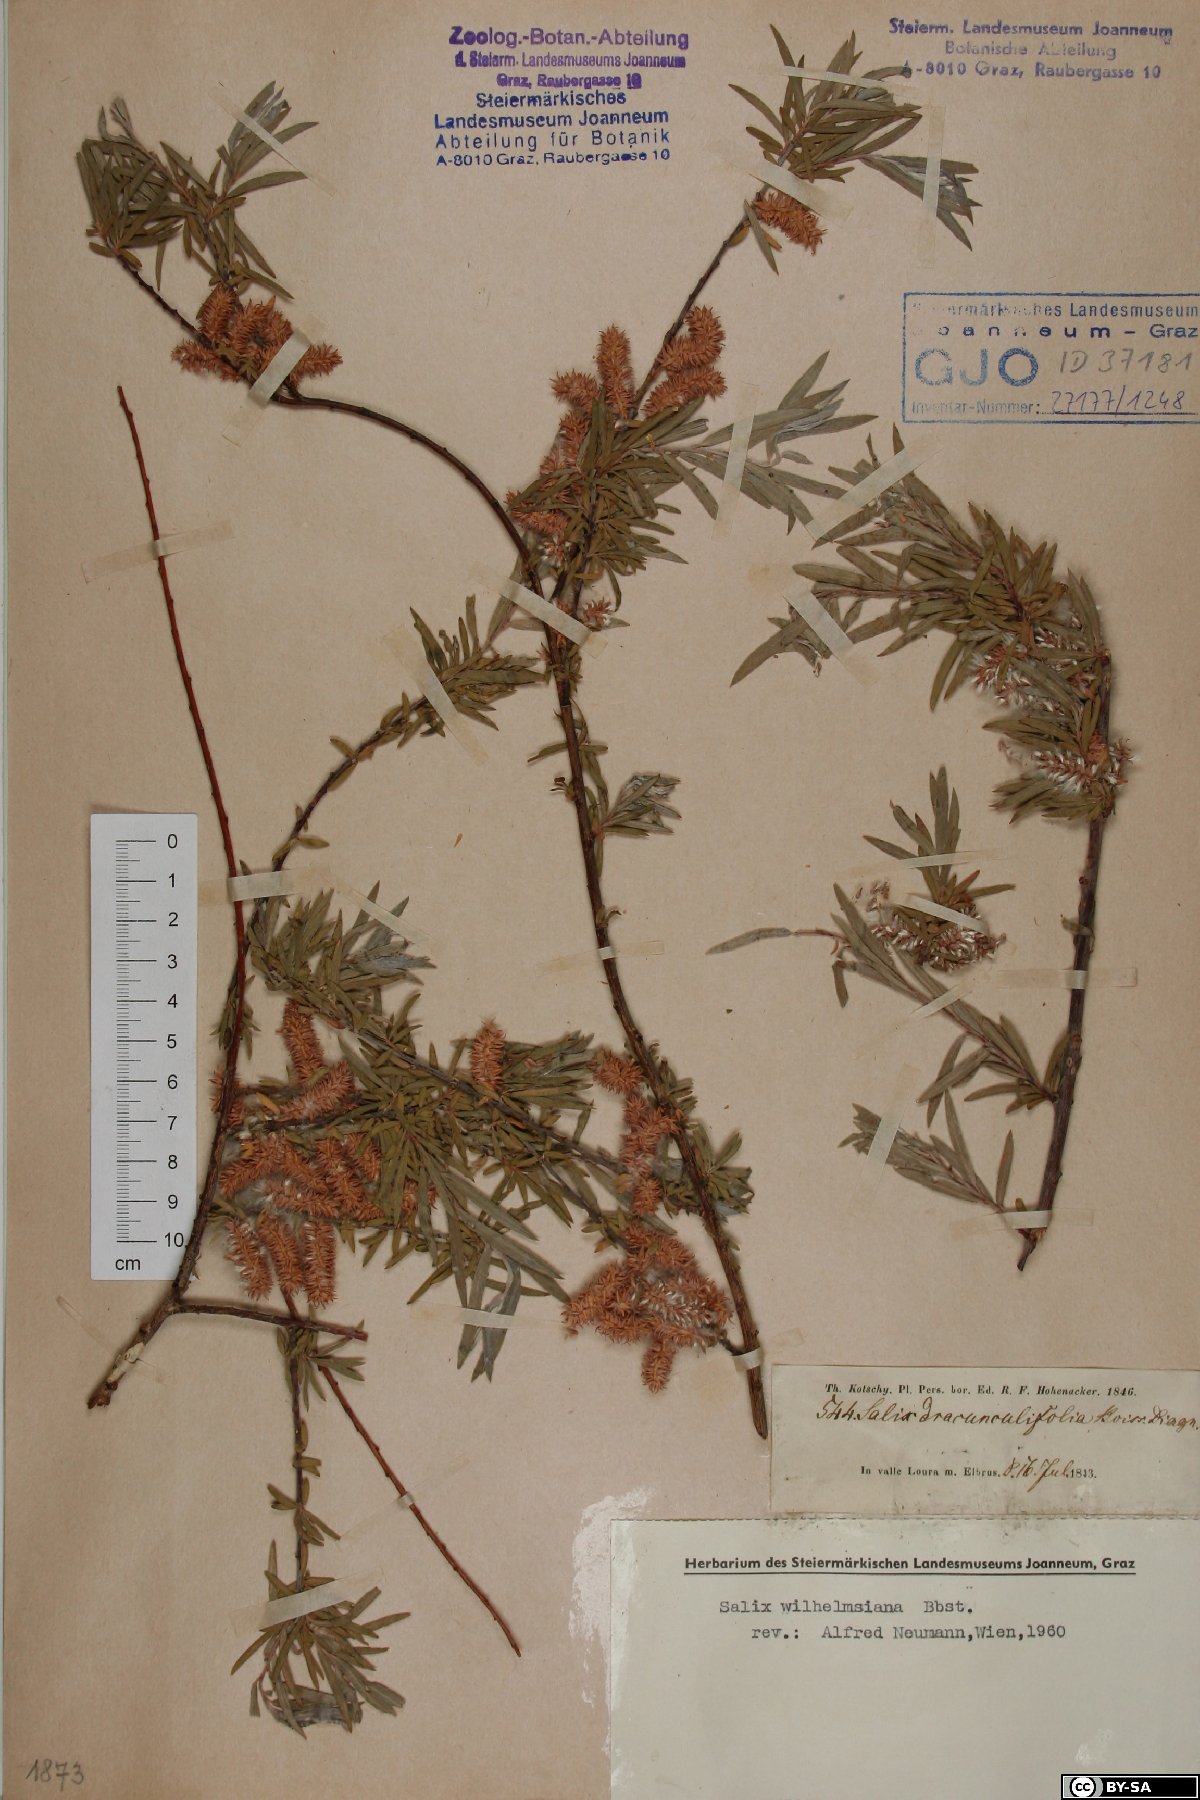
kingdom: Plantae
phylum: Tracheophyta
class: Magnoliopsida
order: Malpighiales
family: Salicaceae
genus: Salix
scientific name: Salix wilhelmsiana
